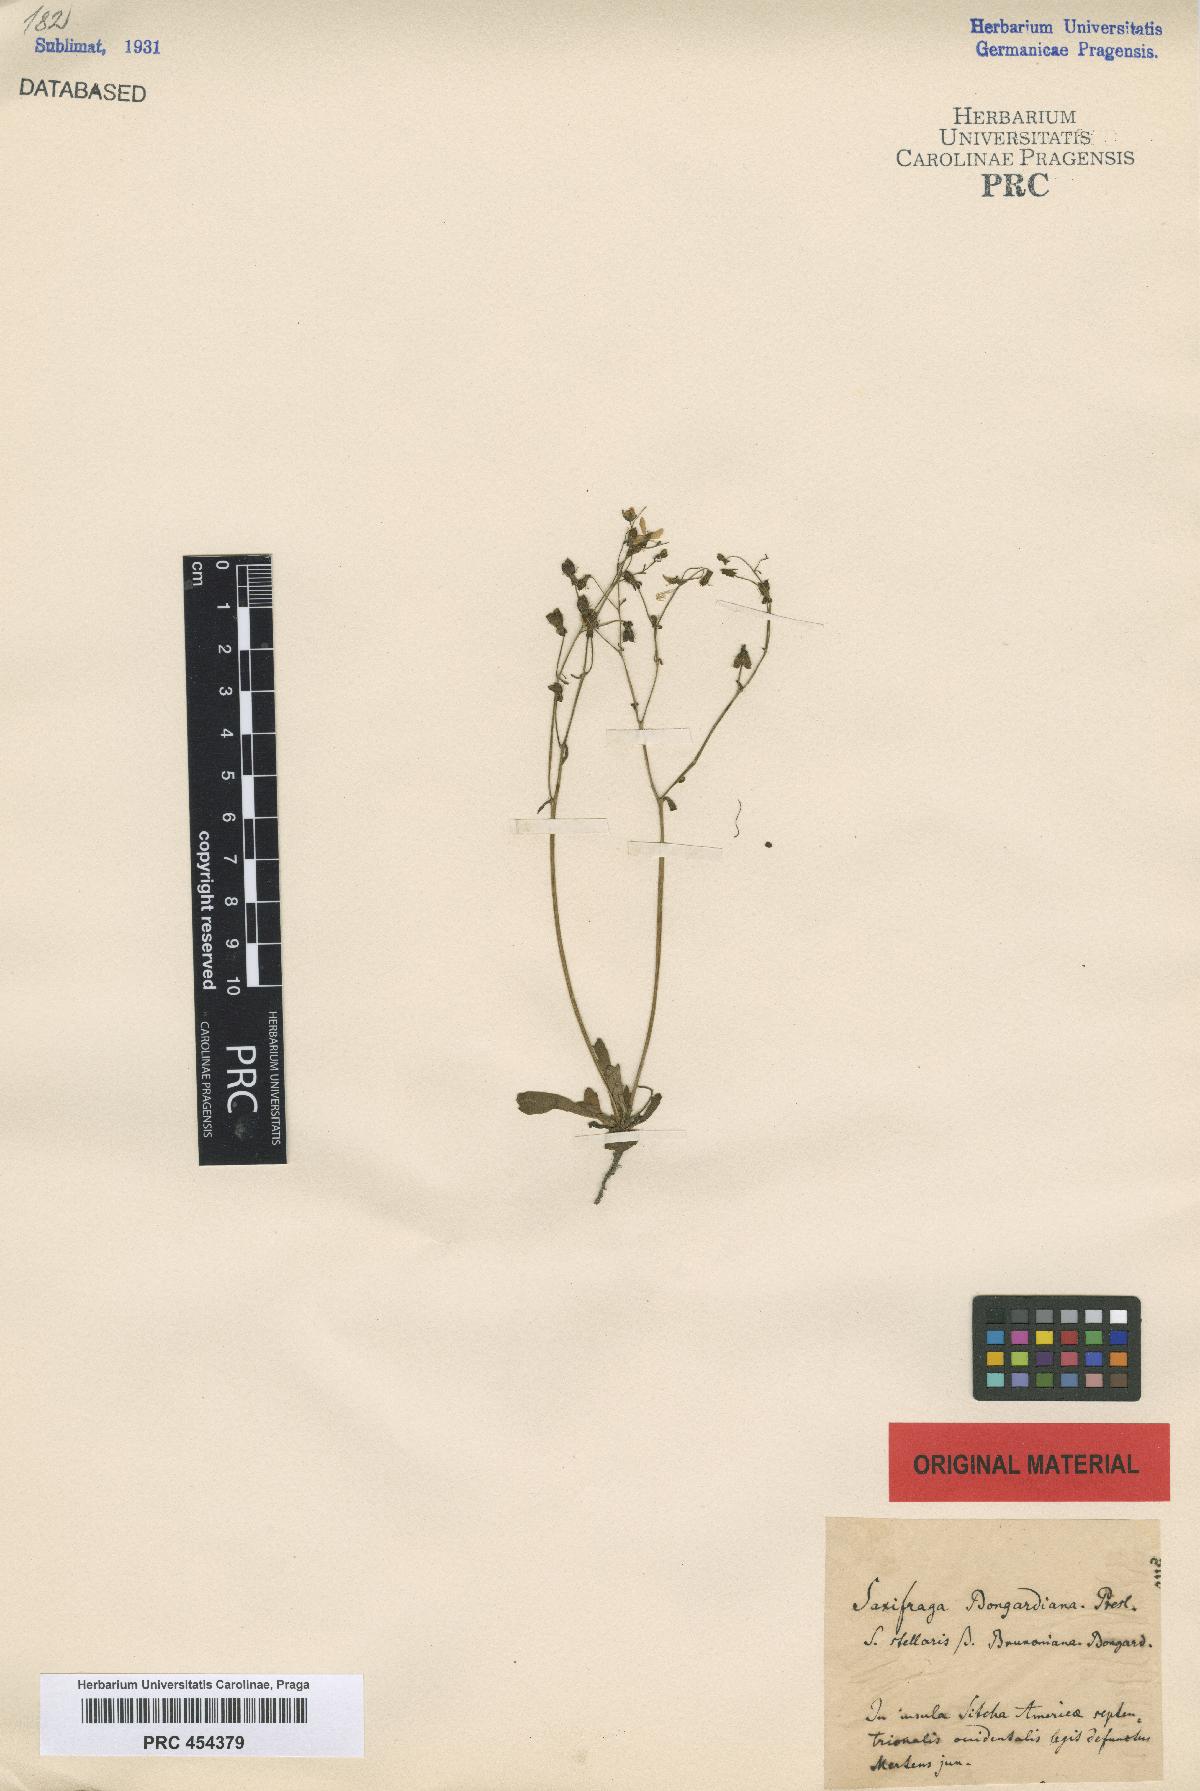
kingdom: Plantae
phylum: Tracheophyta
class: Magnoliopsida
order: Saxifragales
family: Saxifragaceae
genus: Micranthes
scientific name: Micranthes ferruginea
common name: Rusty saxifrage
